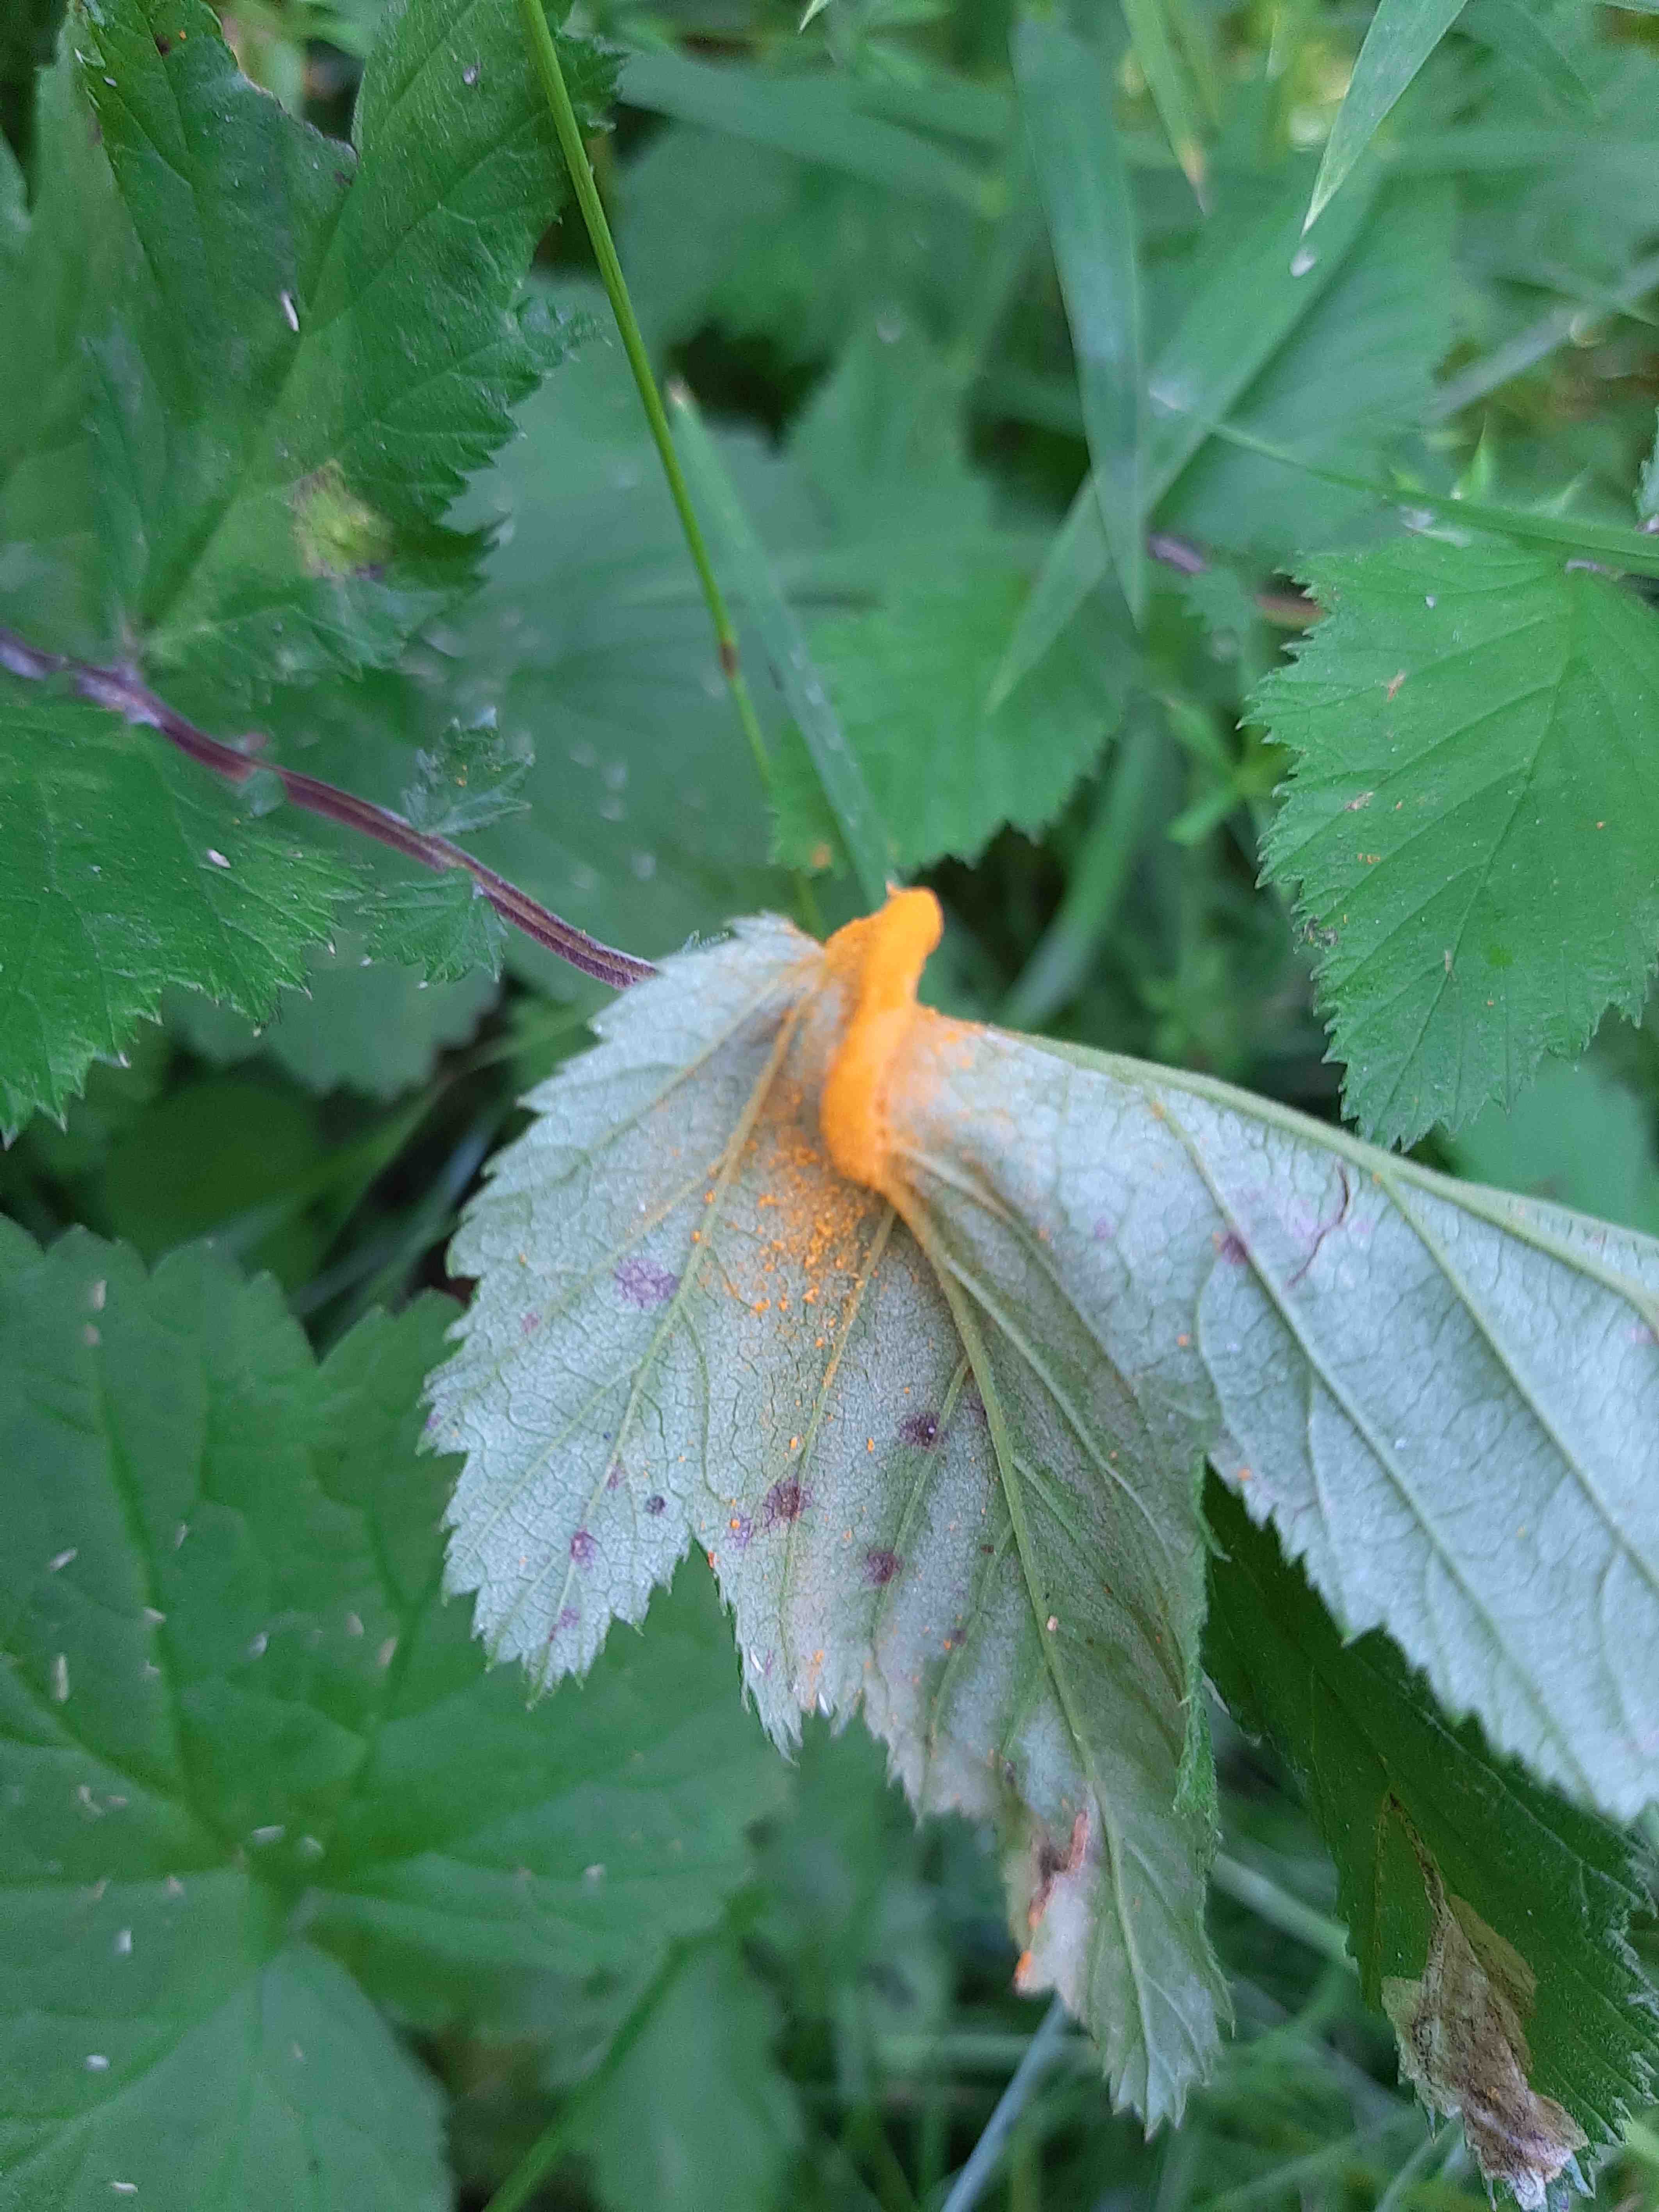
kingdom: Fungi
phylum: Basidiomycota
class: Pucciniomycetes
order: Pucciniales
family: Raveneliaceae
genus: Triphragmium
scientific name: Triphragmium ulmariae
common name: almindelig mjødurtrust
